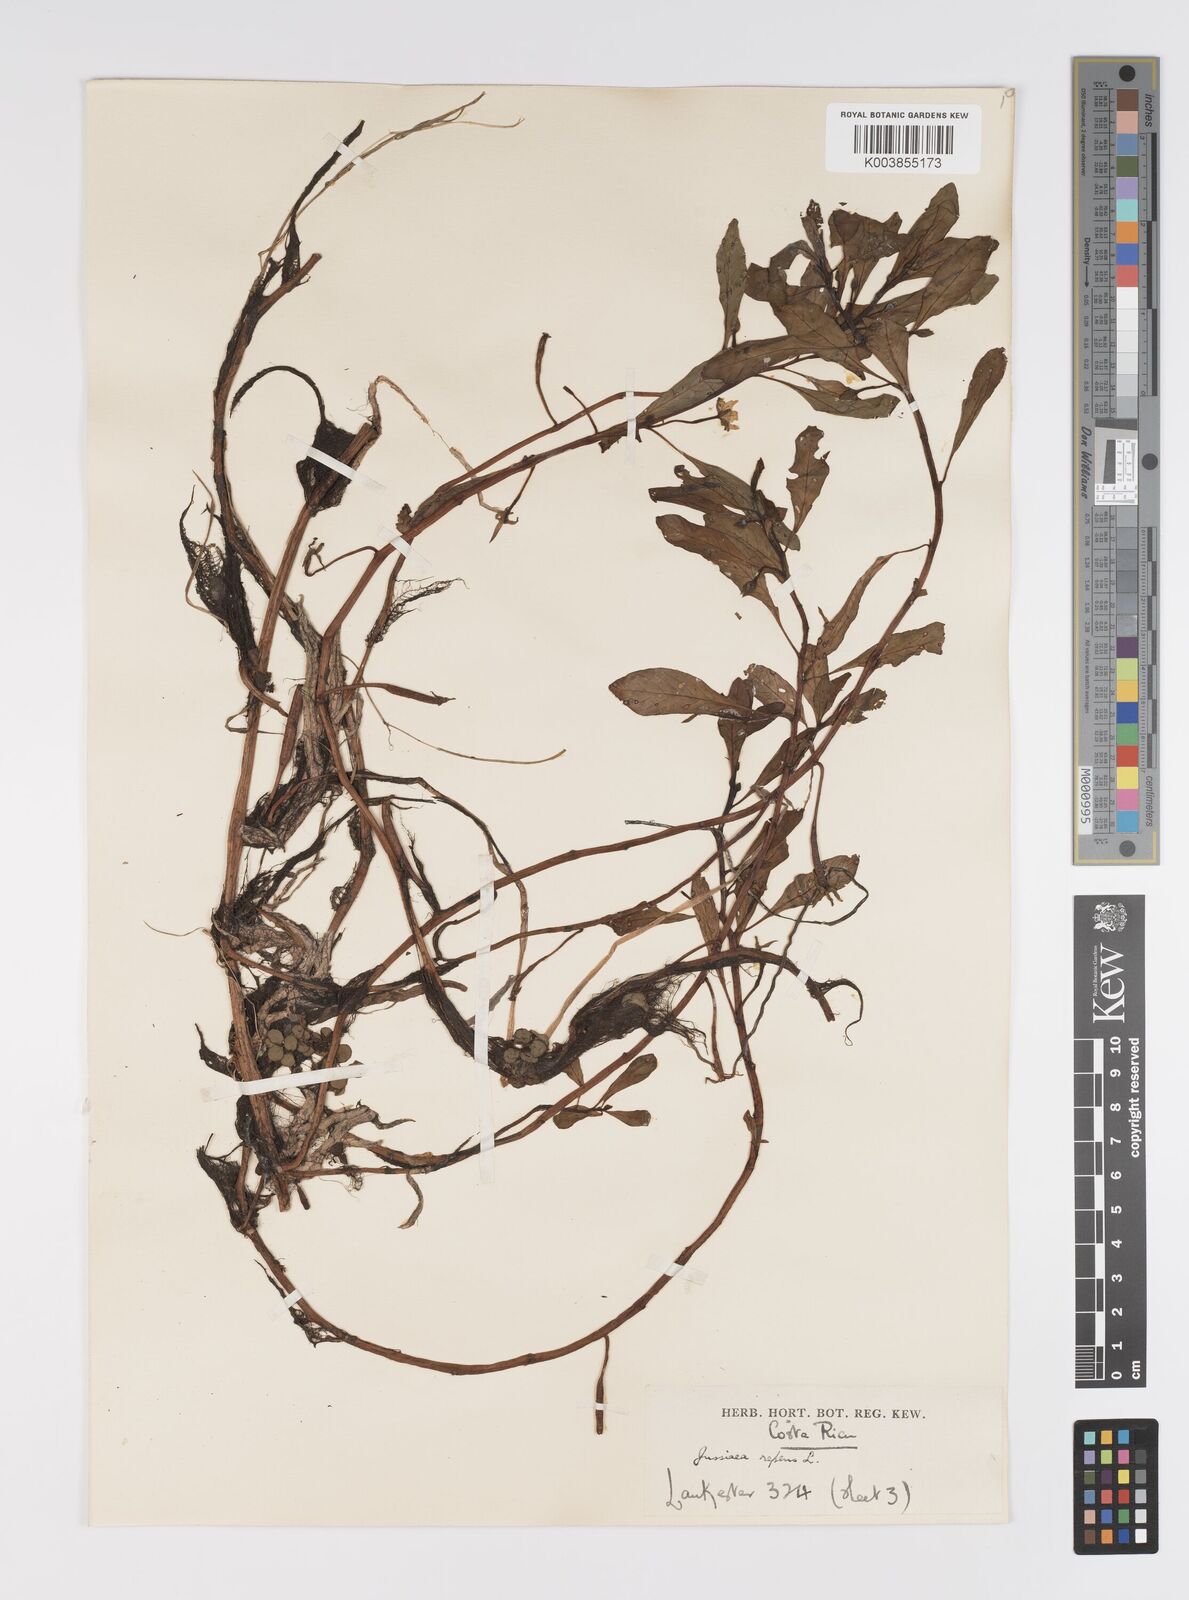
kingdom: Plantae
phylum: Tracheophyta
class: Magnoliopsida
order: Myrtales
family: Onagraceae
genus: Ludwigia
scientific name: Ludwigia adscendens
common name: Creeping water primrose
